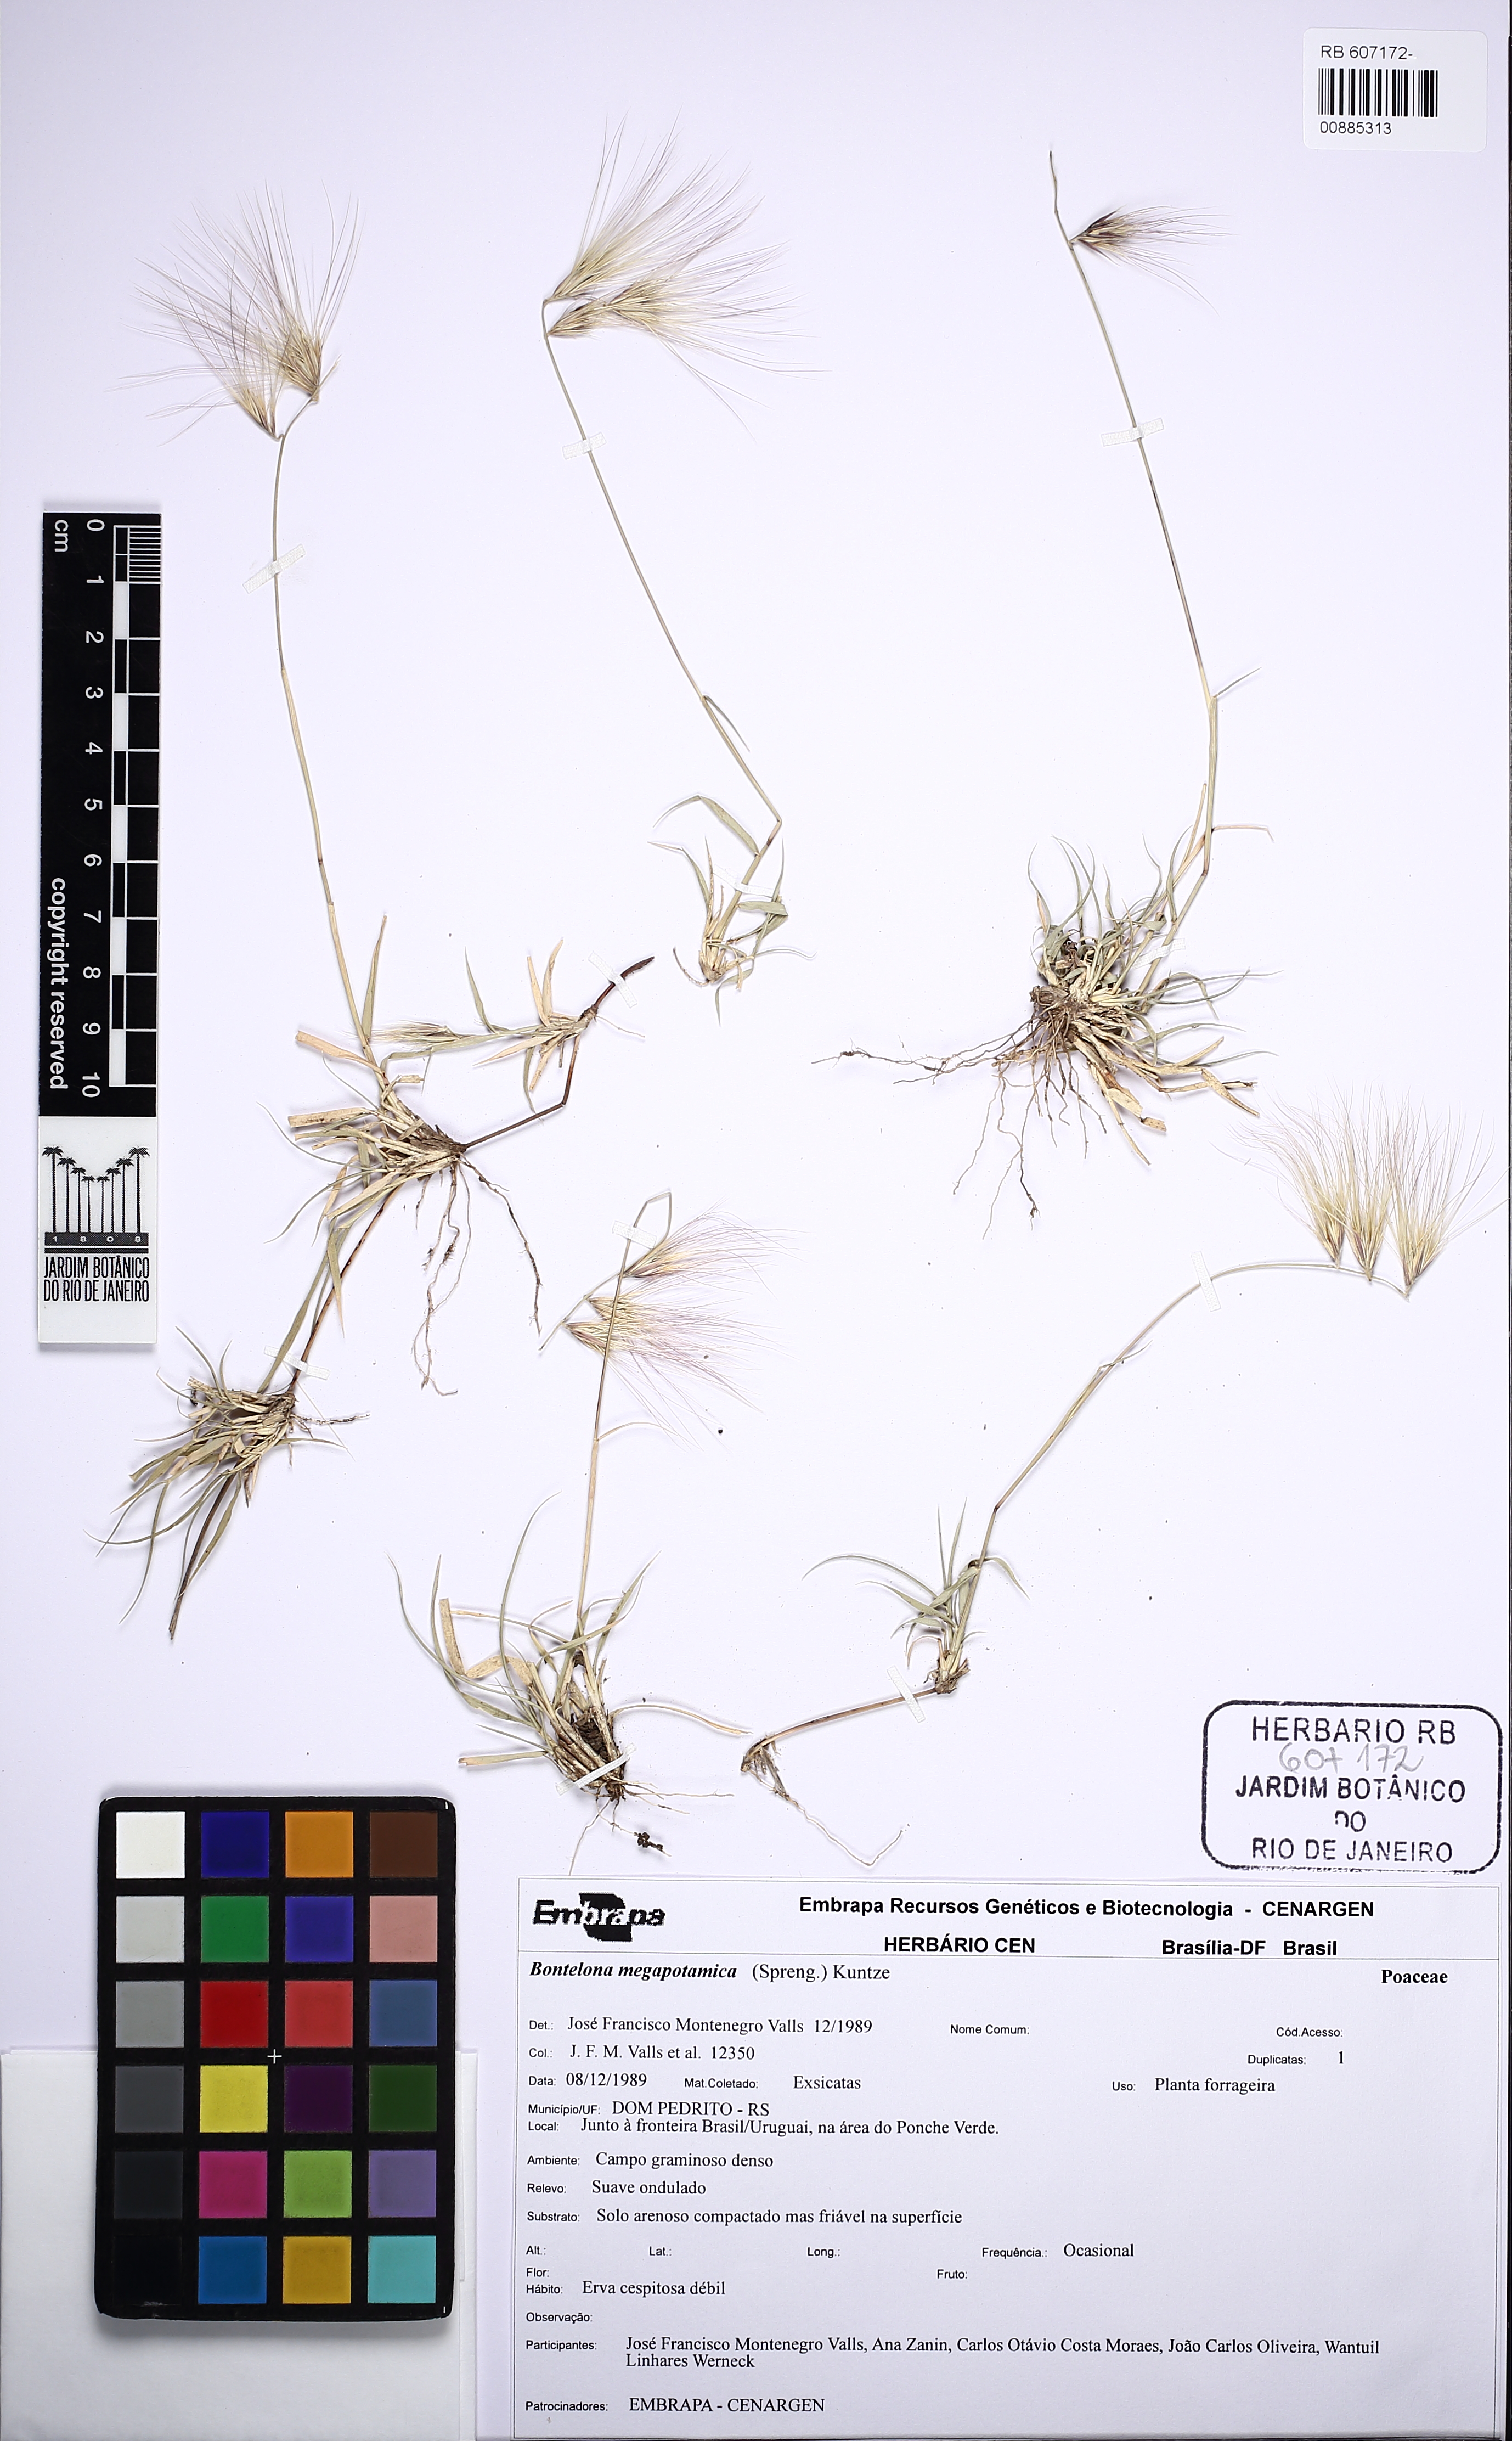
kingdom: Plantae
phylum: Tracheophyta
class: Liliopsida
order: Poales
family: Poaceae
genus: Bouteloua
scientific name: Bouteloua megapotamica
